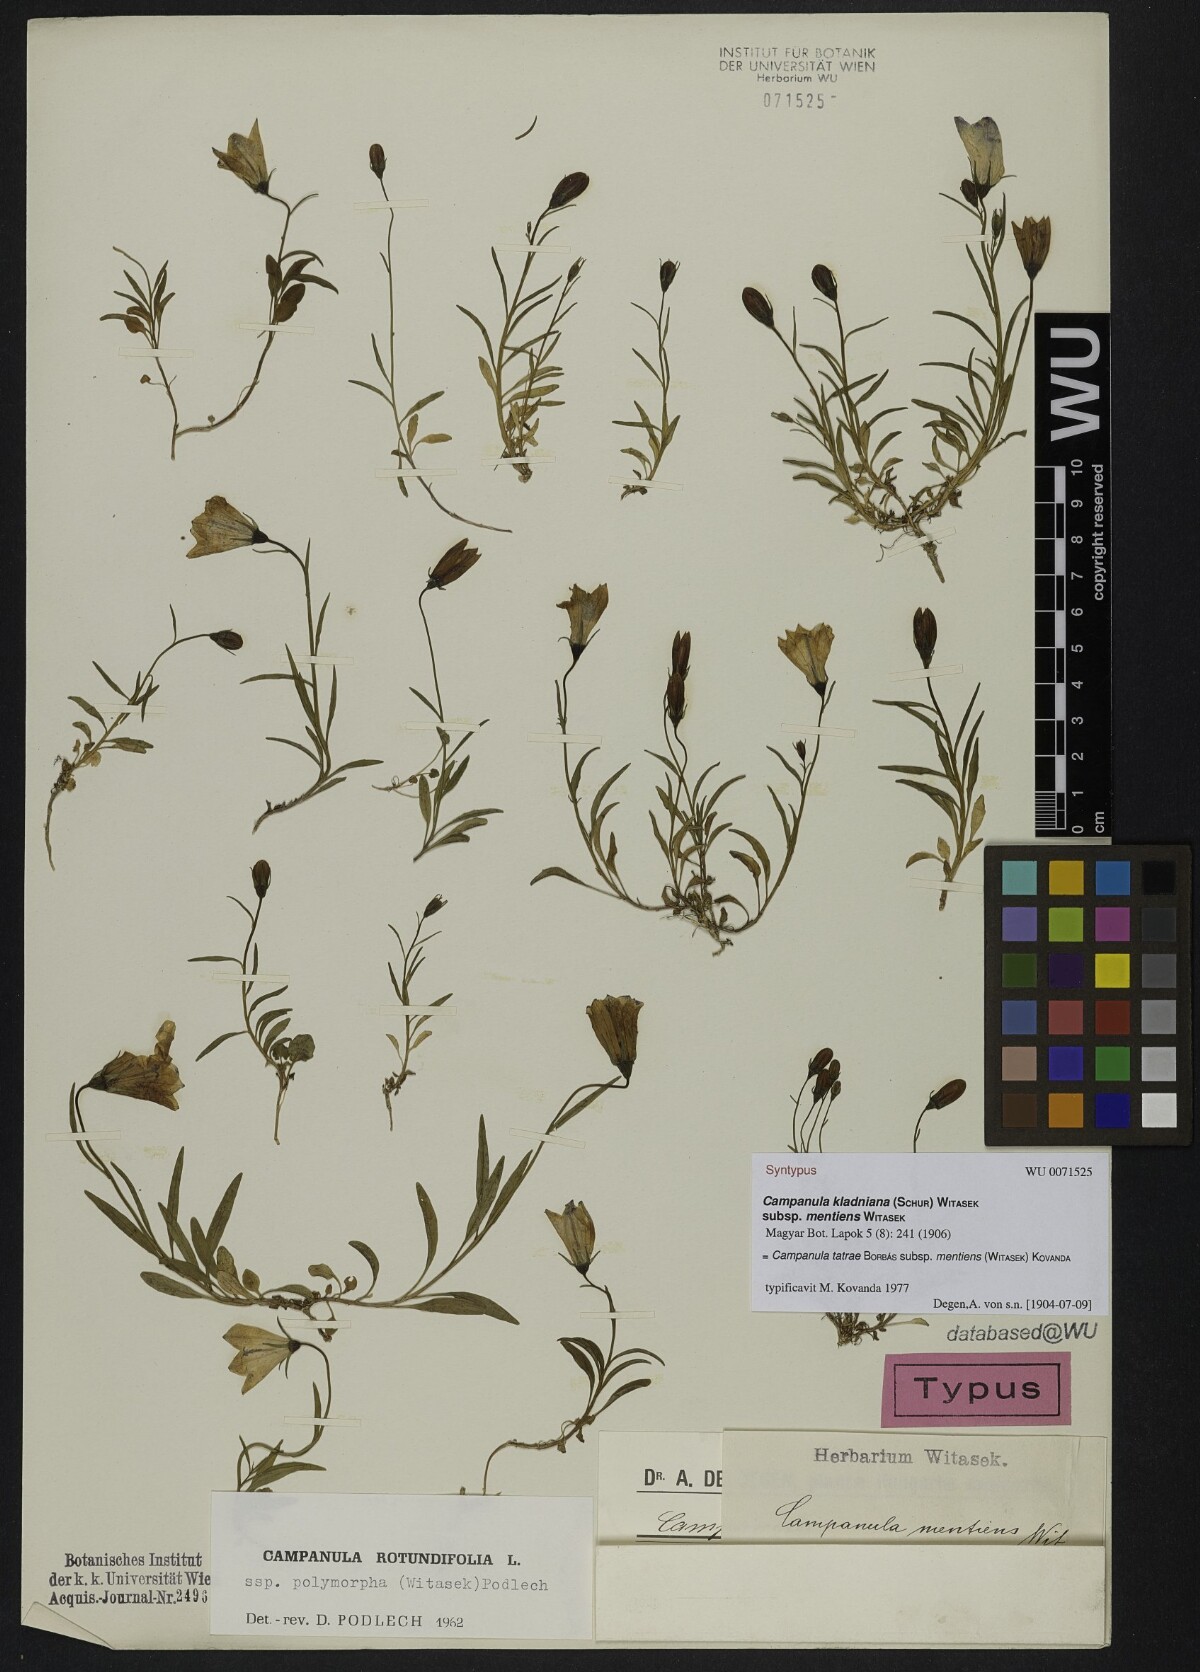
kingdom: Plantae
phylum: Tracheophyta
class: Magnoliopsida
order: Asterales
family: Campanulaceae
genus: Campanula
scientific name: Campanula tatrae
